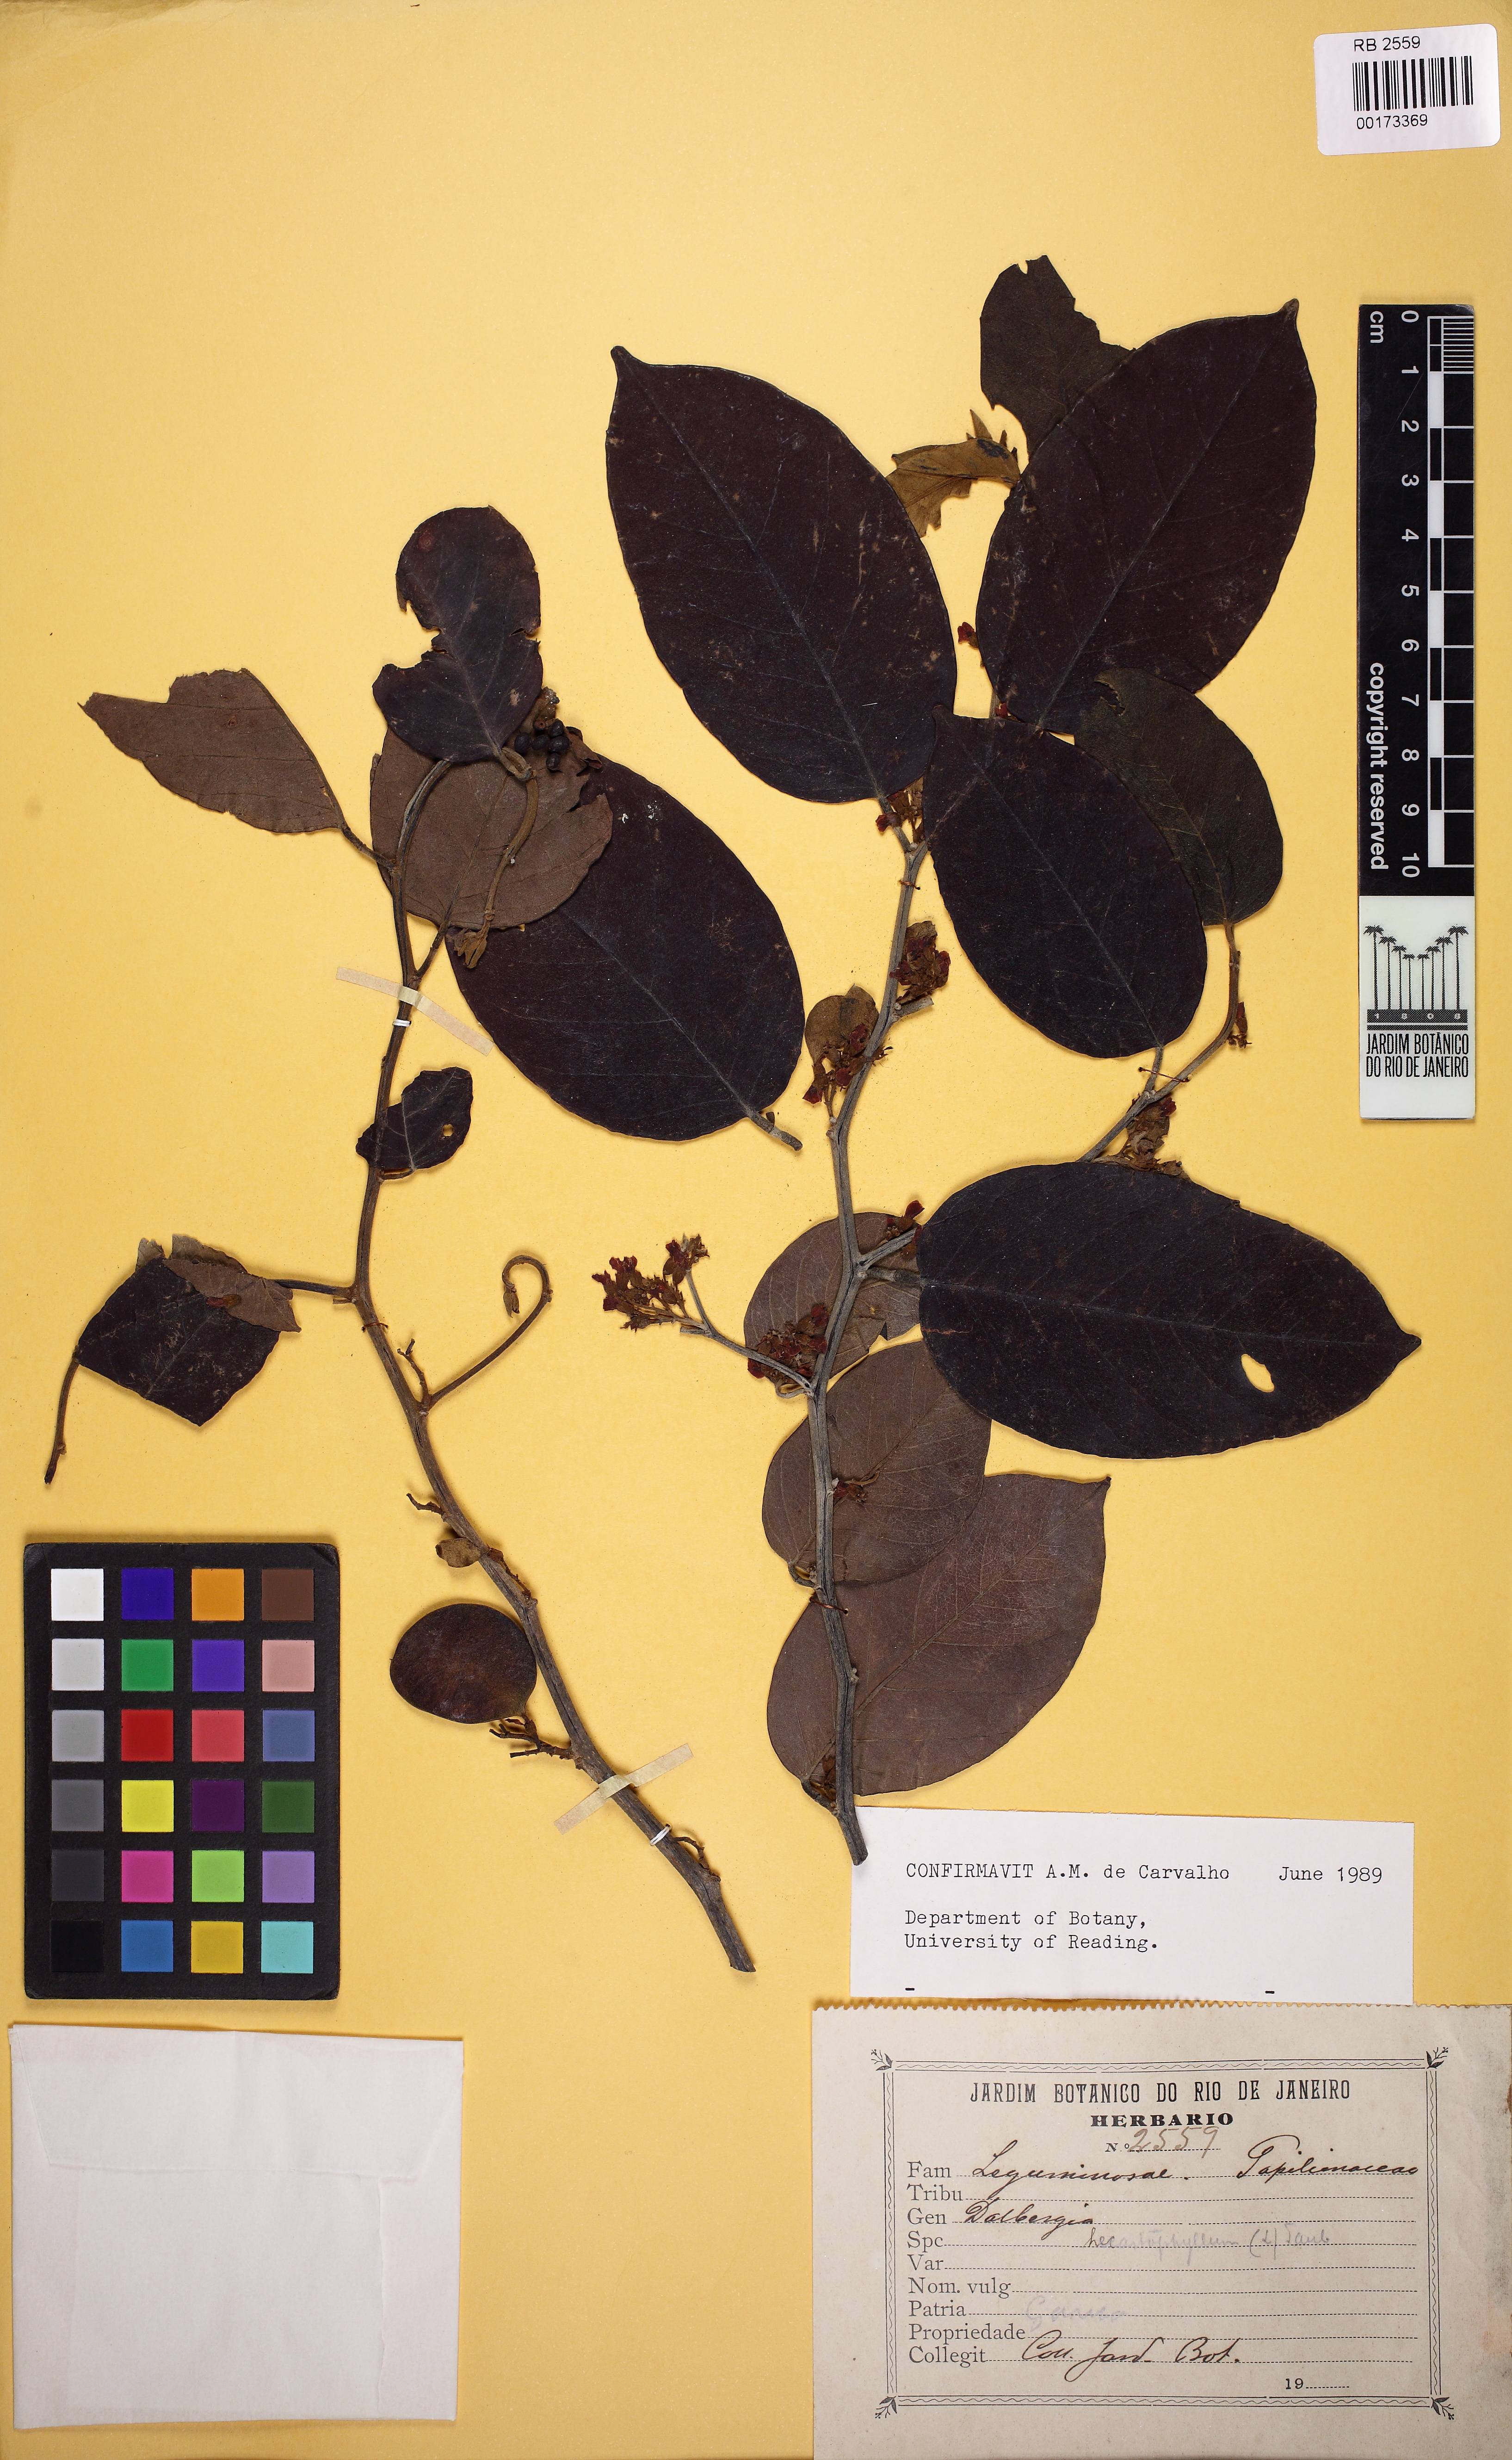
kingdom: Plantae
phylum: Tracheophyta
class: Magnoliopsida
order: Fabales
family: Fabaceae
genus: Dalbergia
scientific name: Dalbergia ecastaphyllum
